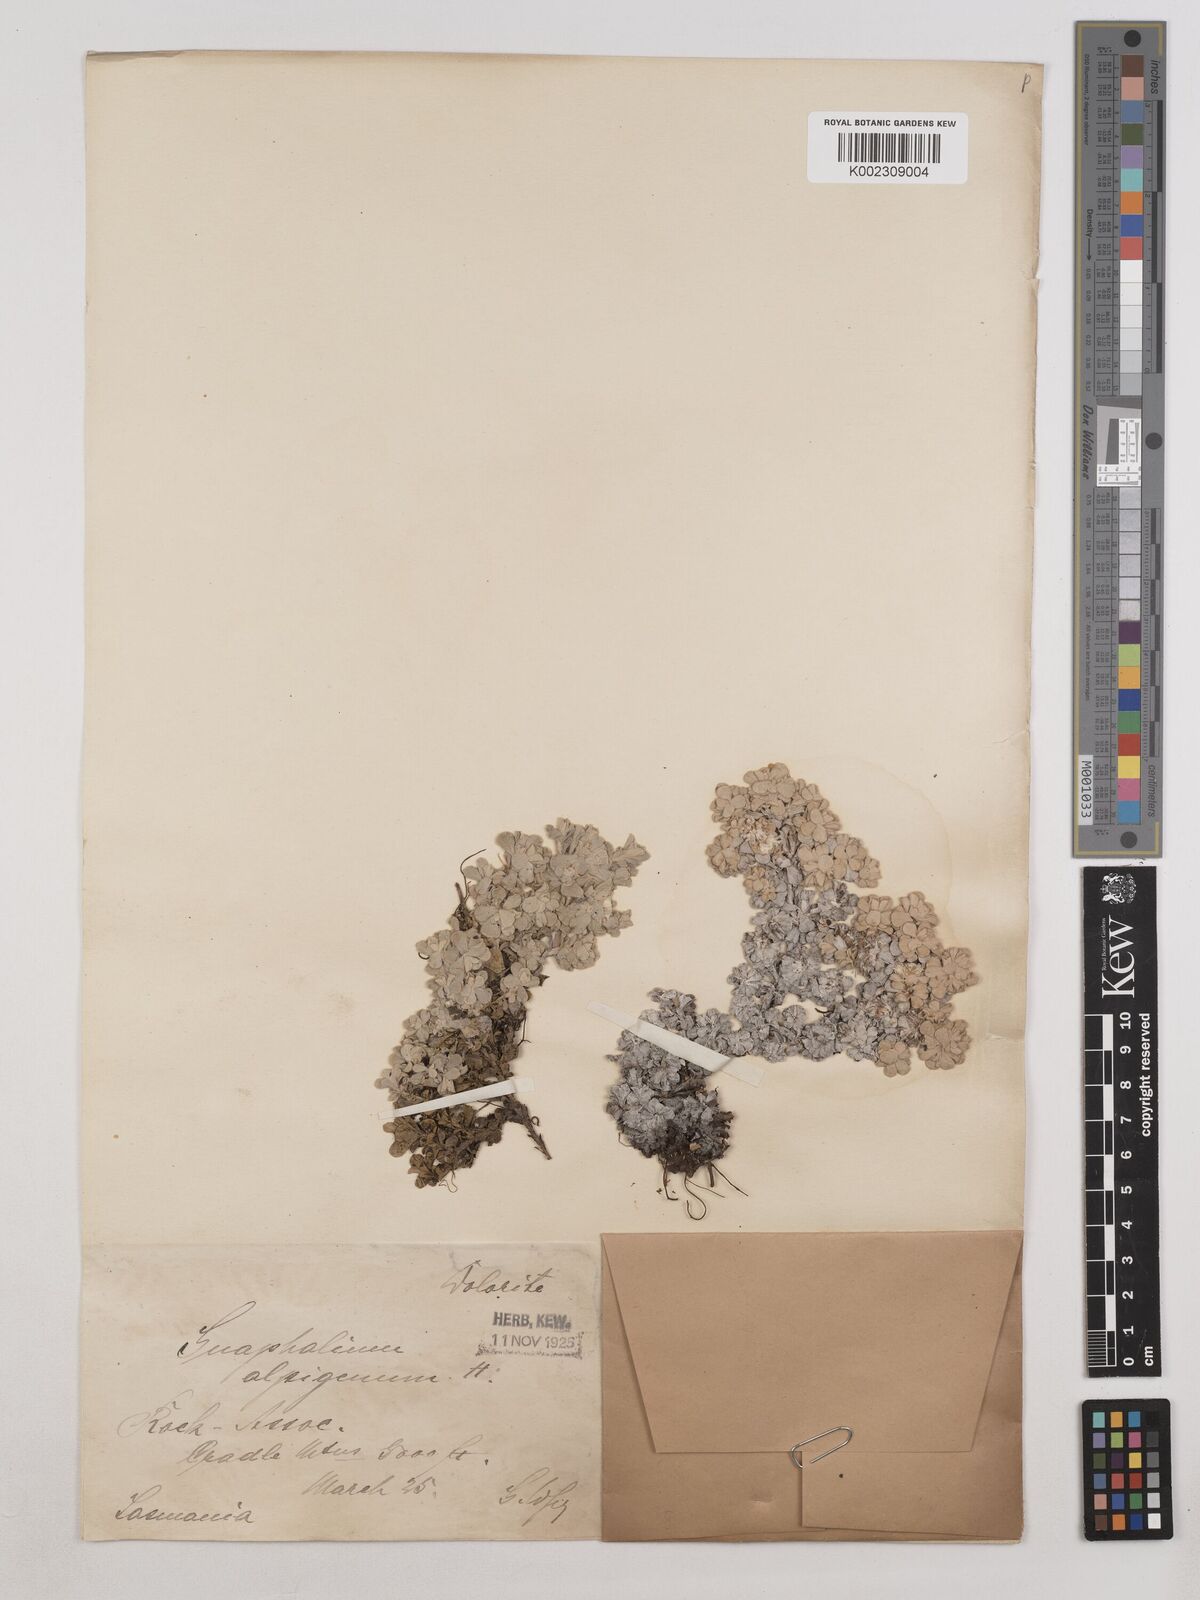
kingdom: Plantae
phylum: Tracheophyta
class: Magnoliopsida
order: Asterales
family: Asteraceae
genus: Leucogenes
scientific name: Leucogenes grandiceps
